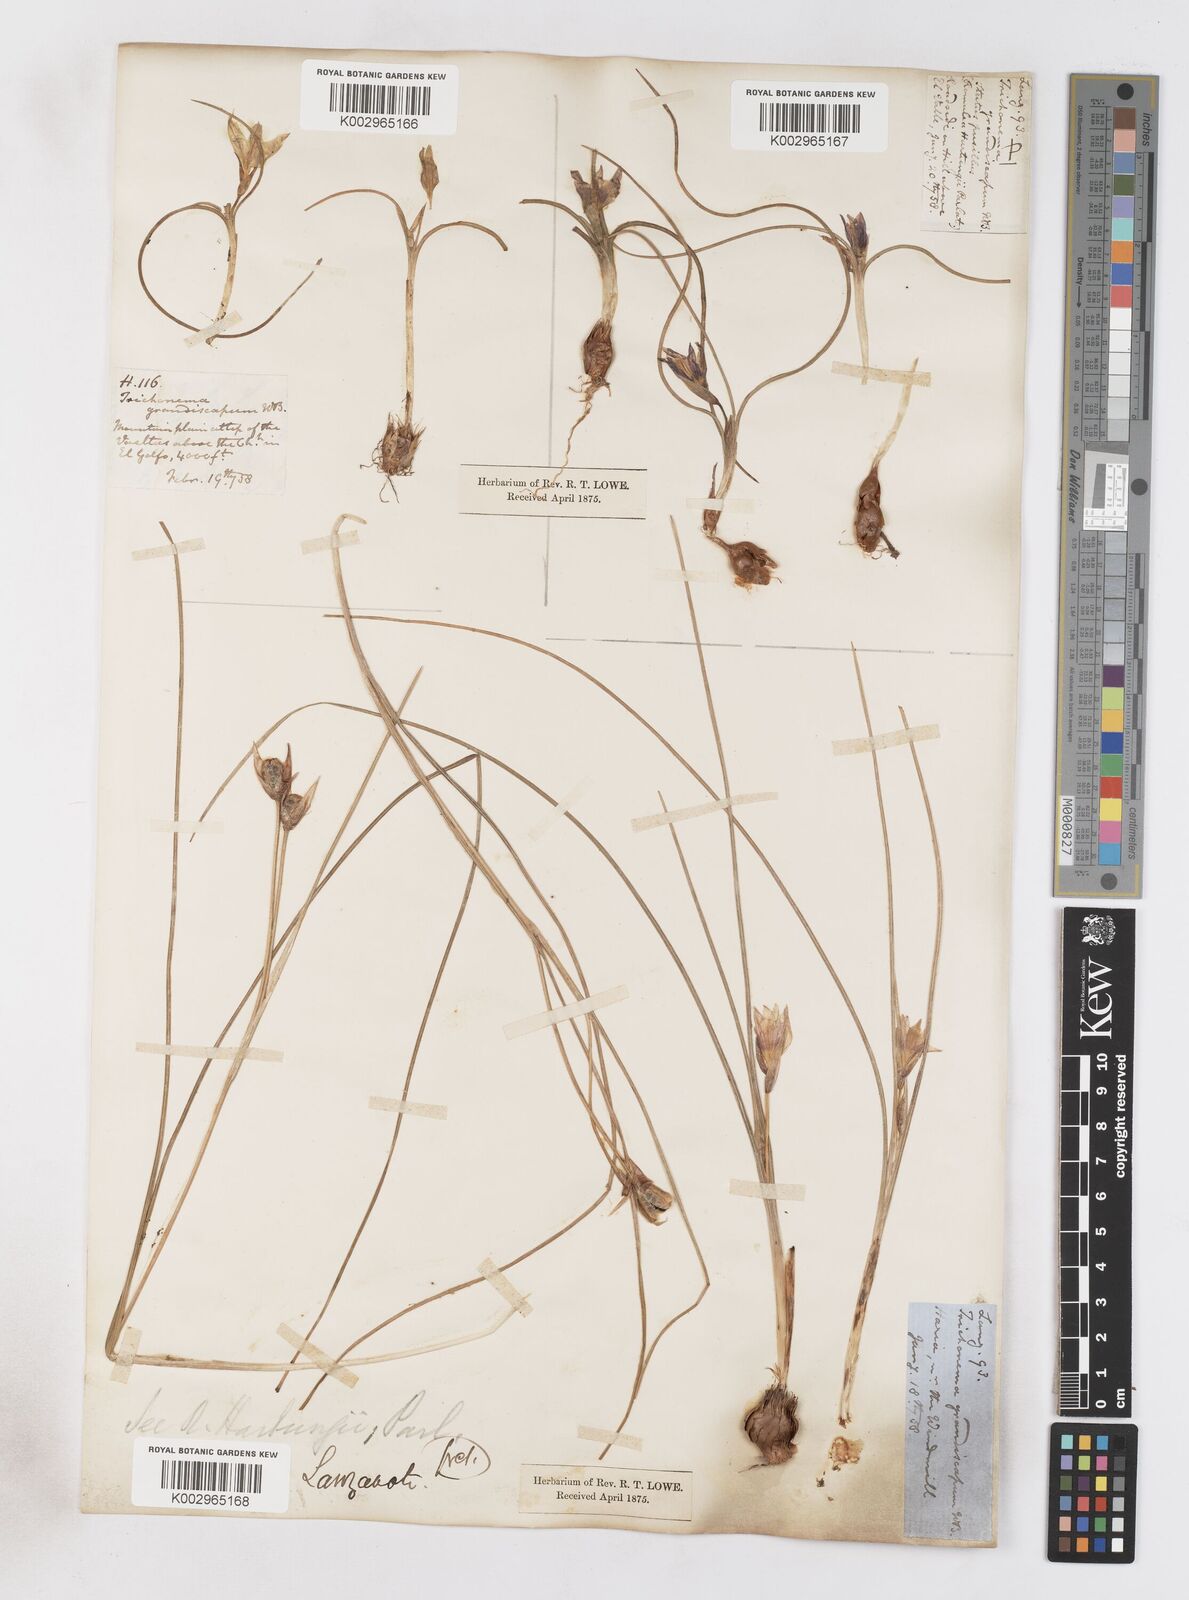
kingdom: Plantae
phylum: Tracheophyta
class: Liliopsida
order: Asparagales
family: Iridaceae
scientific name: Iridaceae
